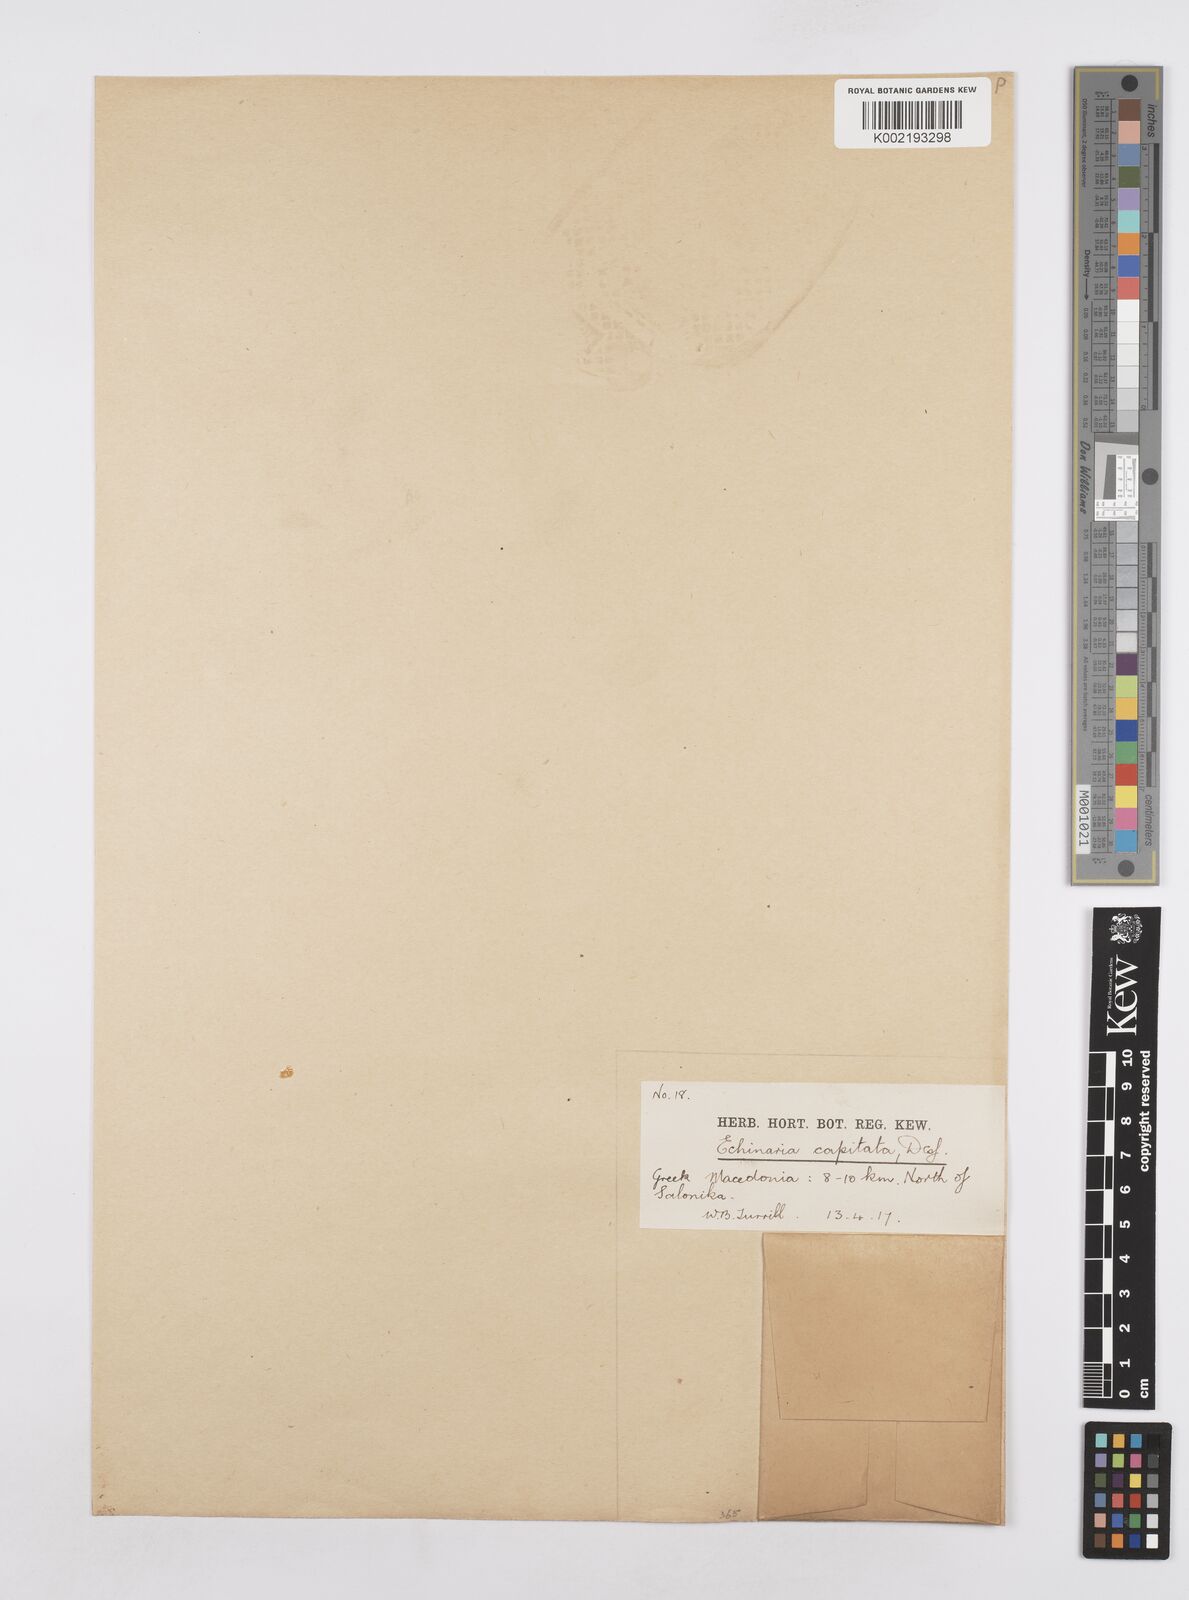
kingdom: Plantae
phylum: Tracheophyta
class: Liliopsida
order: Poales
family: Poaceae
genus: Echinaria
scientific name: Echinaria capitata
